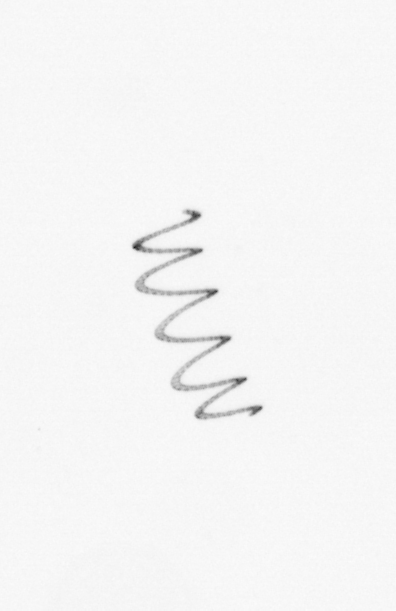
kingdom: Chromista
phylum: Ochrophyta
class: Bacillariophyceae
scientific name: Bacillariophyceae
